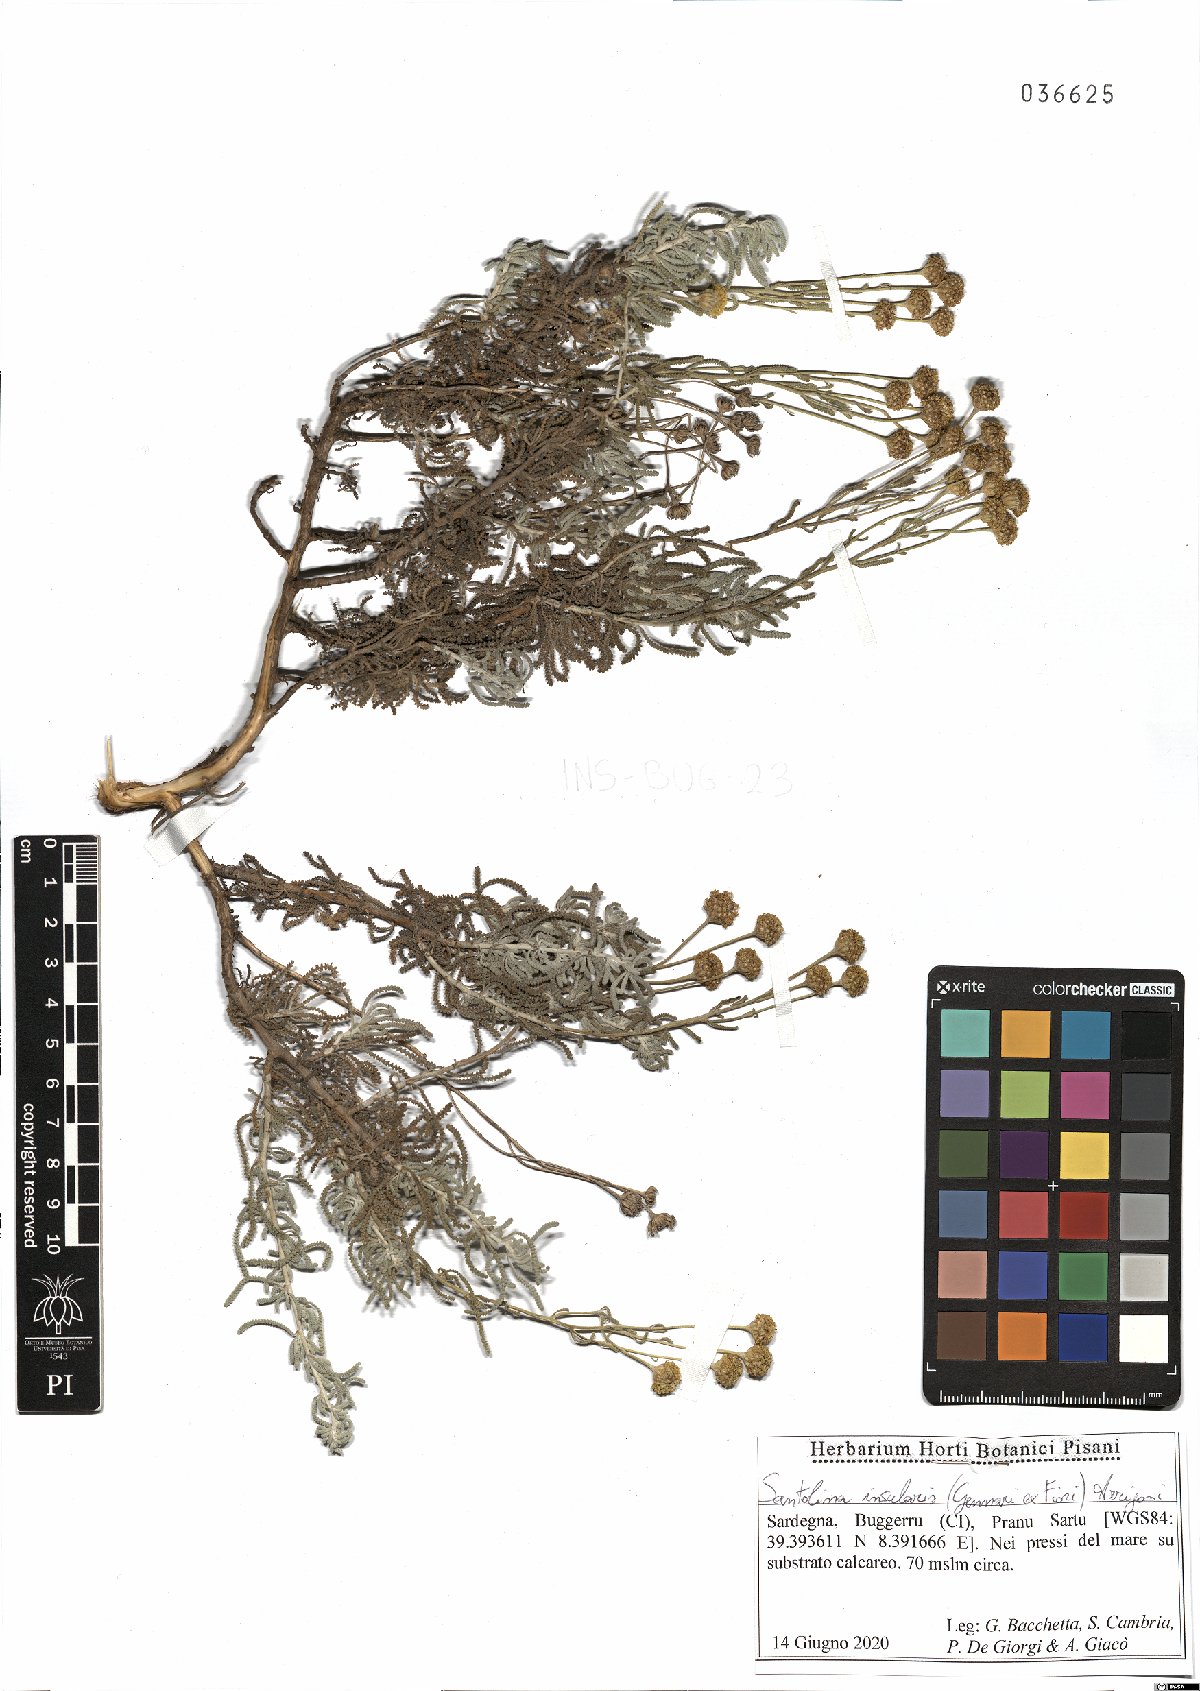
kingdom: Plantae
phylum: Tracheophyta
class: Magnoliopsida
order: Asterales
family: Asteraceae
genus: Santolina
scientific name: Santolina insularis
